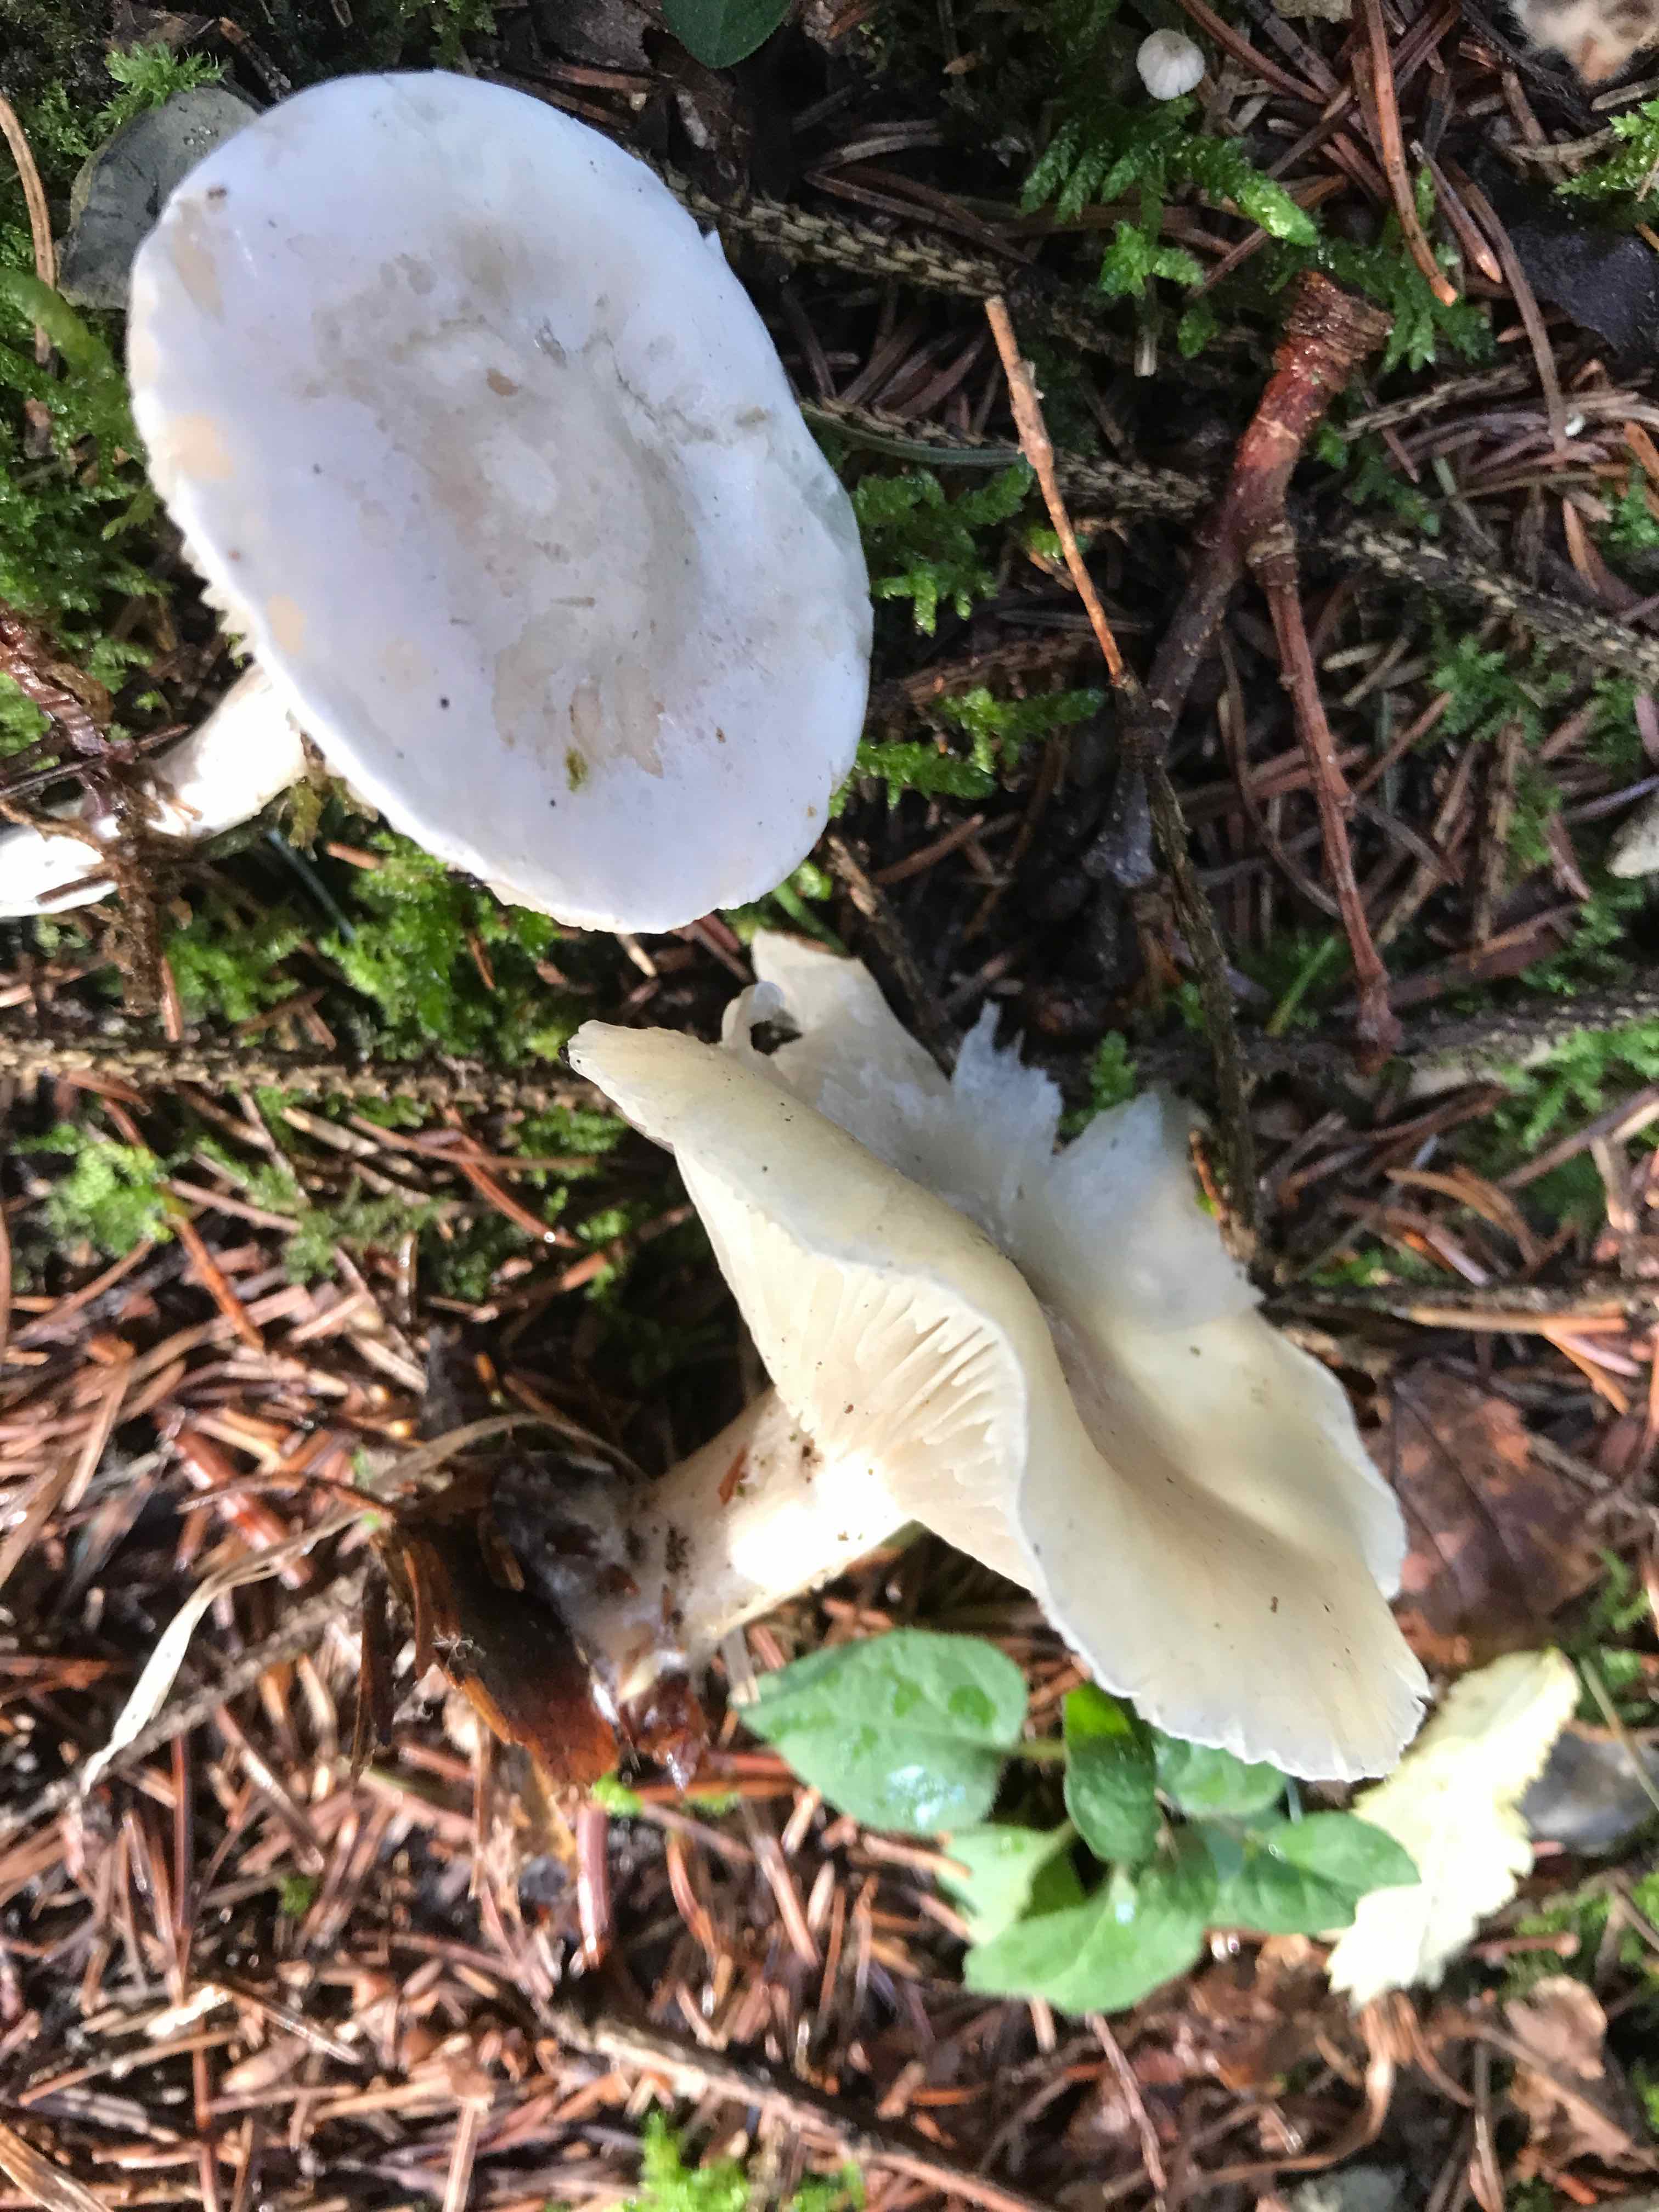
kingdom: Fungi
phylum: Basidiomycota
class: Agaricomycetes
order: Agaricales
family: Tricholomataceae
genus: Clitocybe
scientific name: Clitocybe odora
